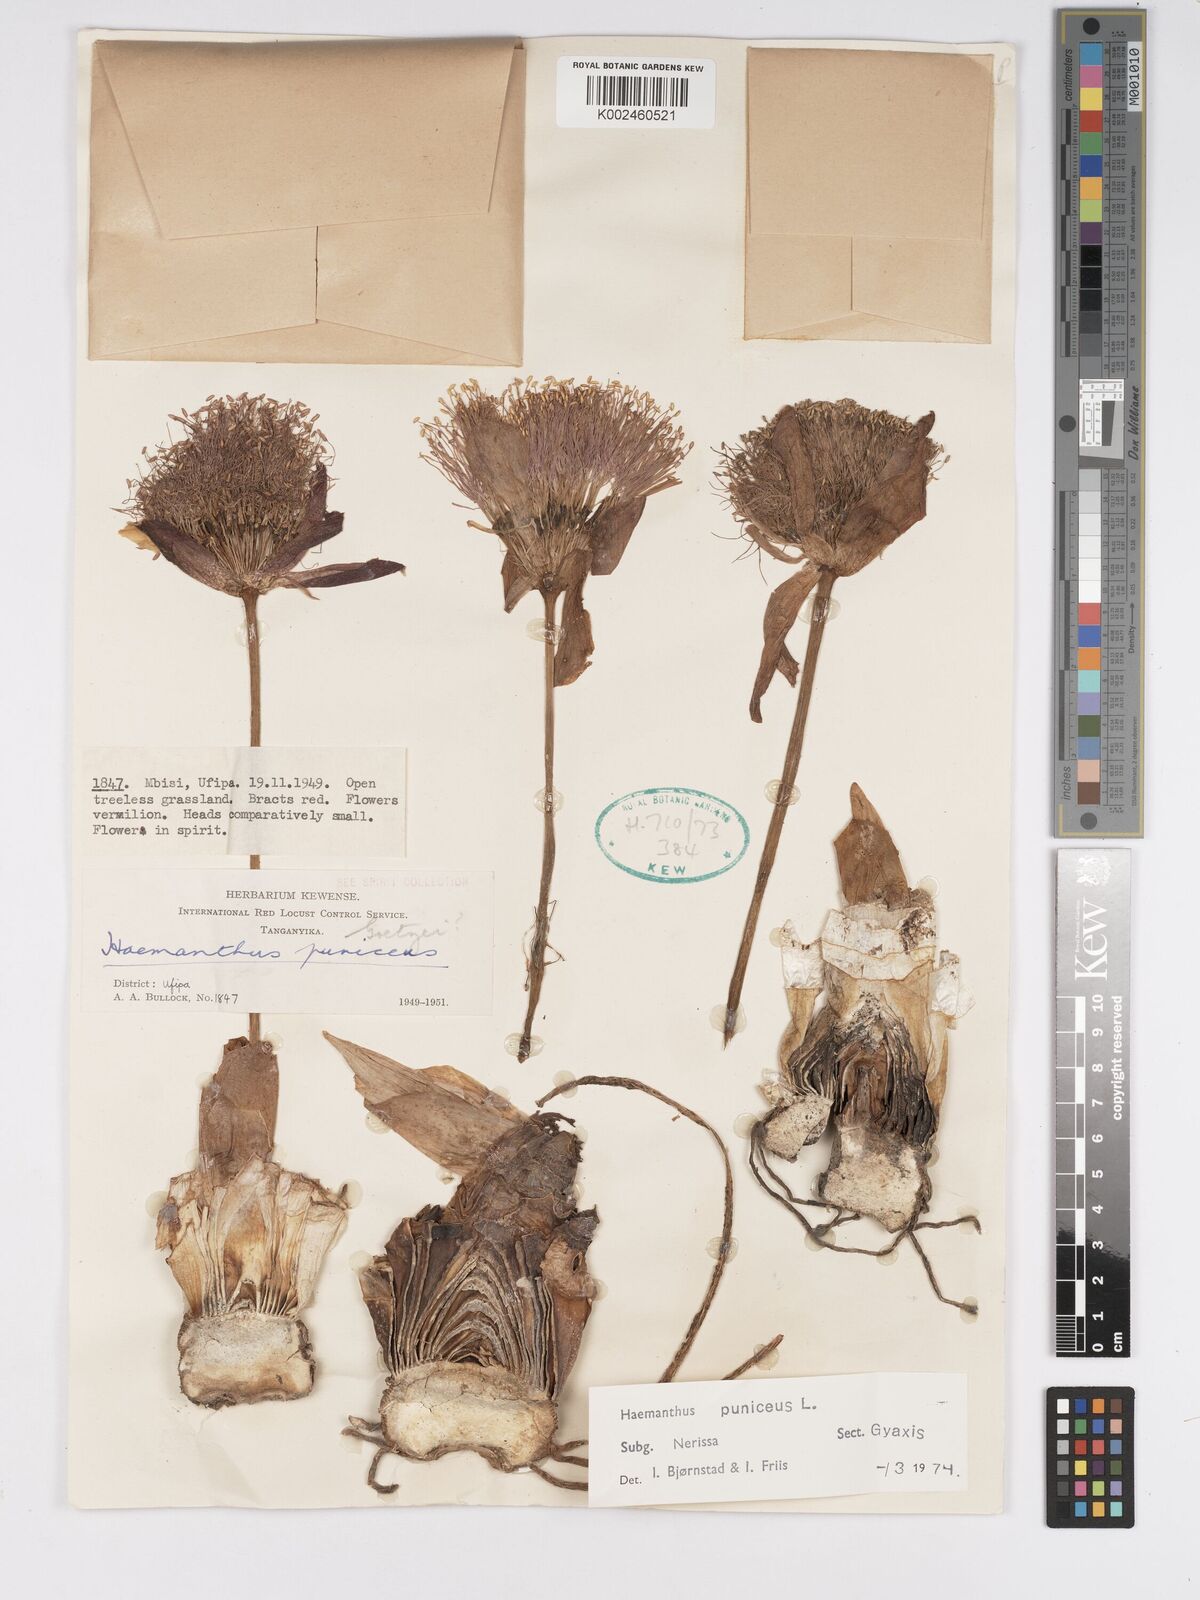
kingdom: Plantae
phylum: Tracheophyta
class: Liliopsida
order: Asparagales
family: Amaryllidaceae
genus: Scadoxus
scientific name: Scadoxus puniceus
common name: Royal-paintbrush
